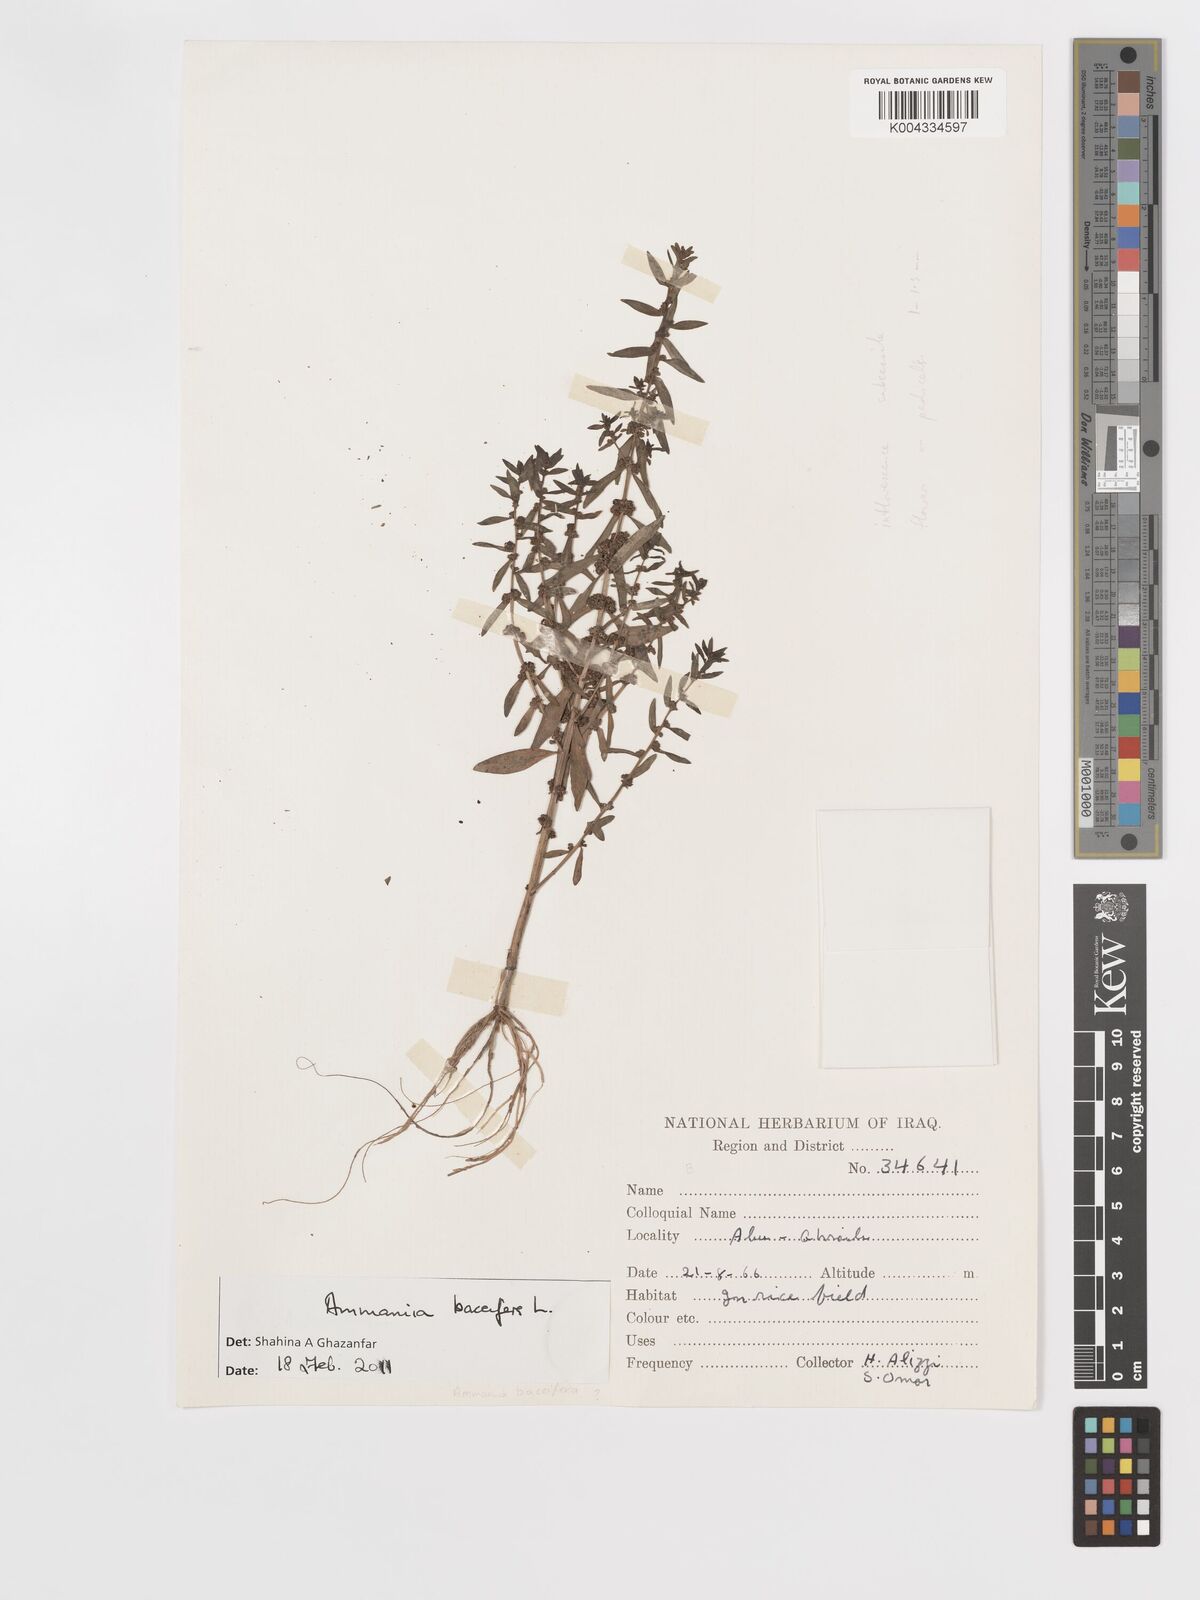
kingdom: Plantae
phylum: Tracheophyta
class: Magnoliopsida
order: Myrtales
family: Lythraceae
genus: Ammannia
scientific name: Ammannia baccifera
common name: Blistering ammania
